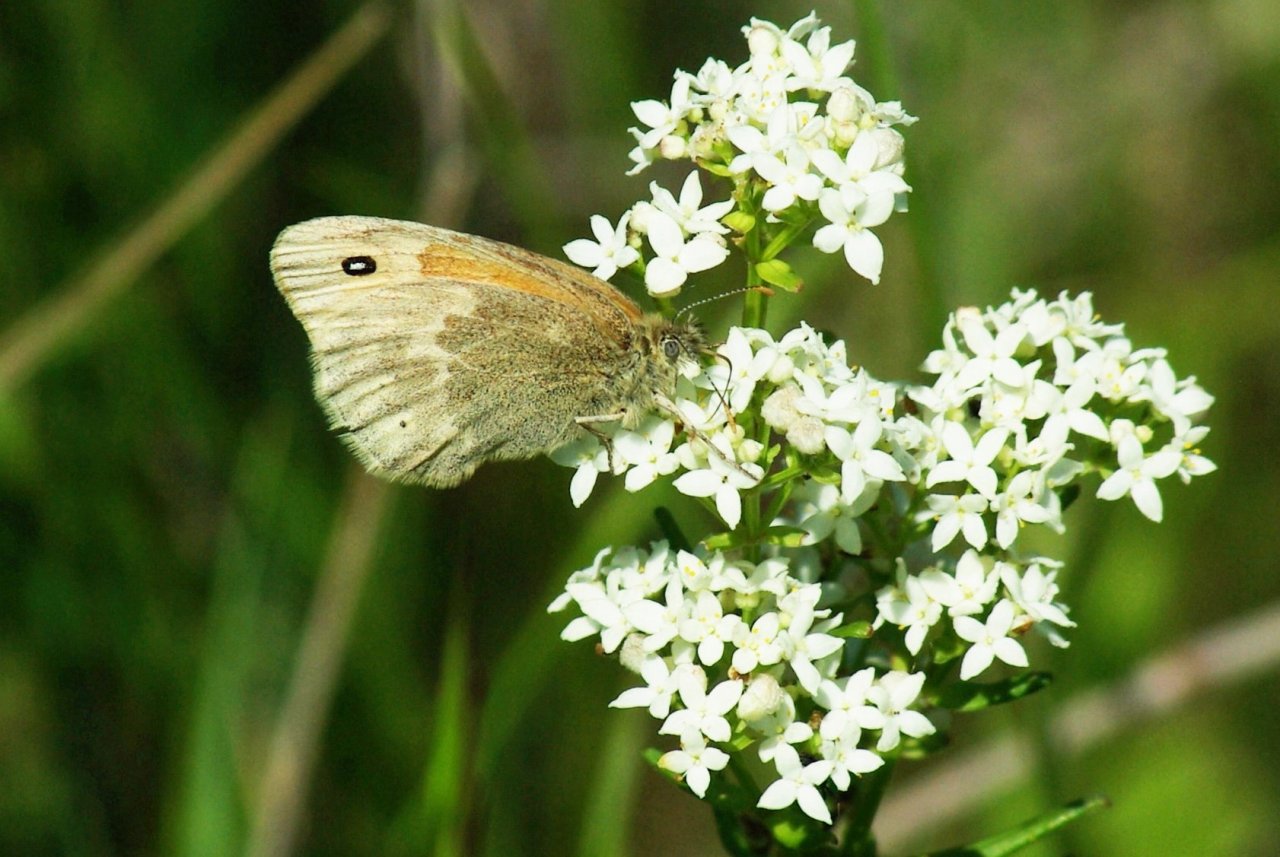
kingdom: Animalia
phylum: Arthropoda
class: Insecta
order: Lepidoptera
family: Nymphalidae
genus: Coenonympha
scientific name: Coenonympha tullia
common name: Large Heath
